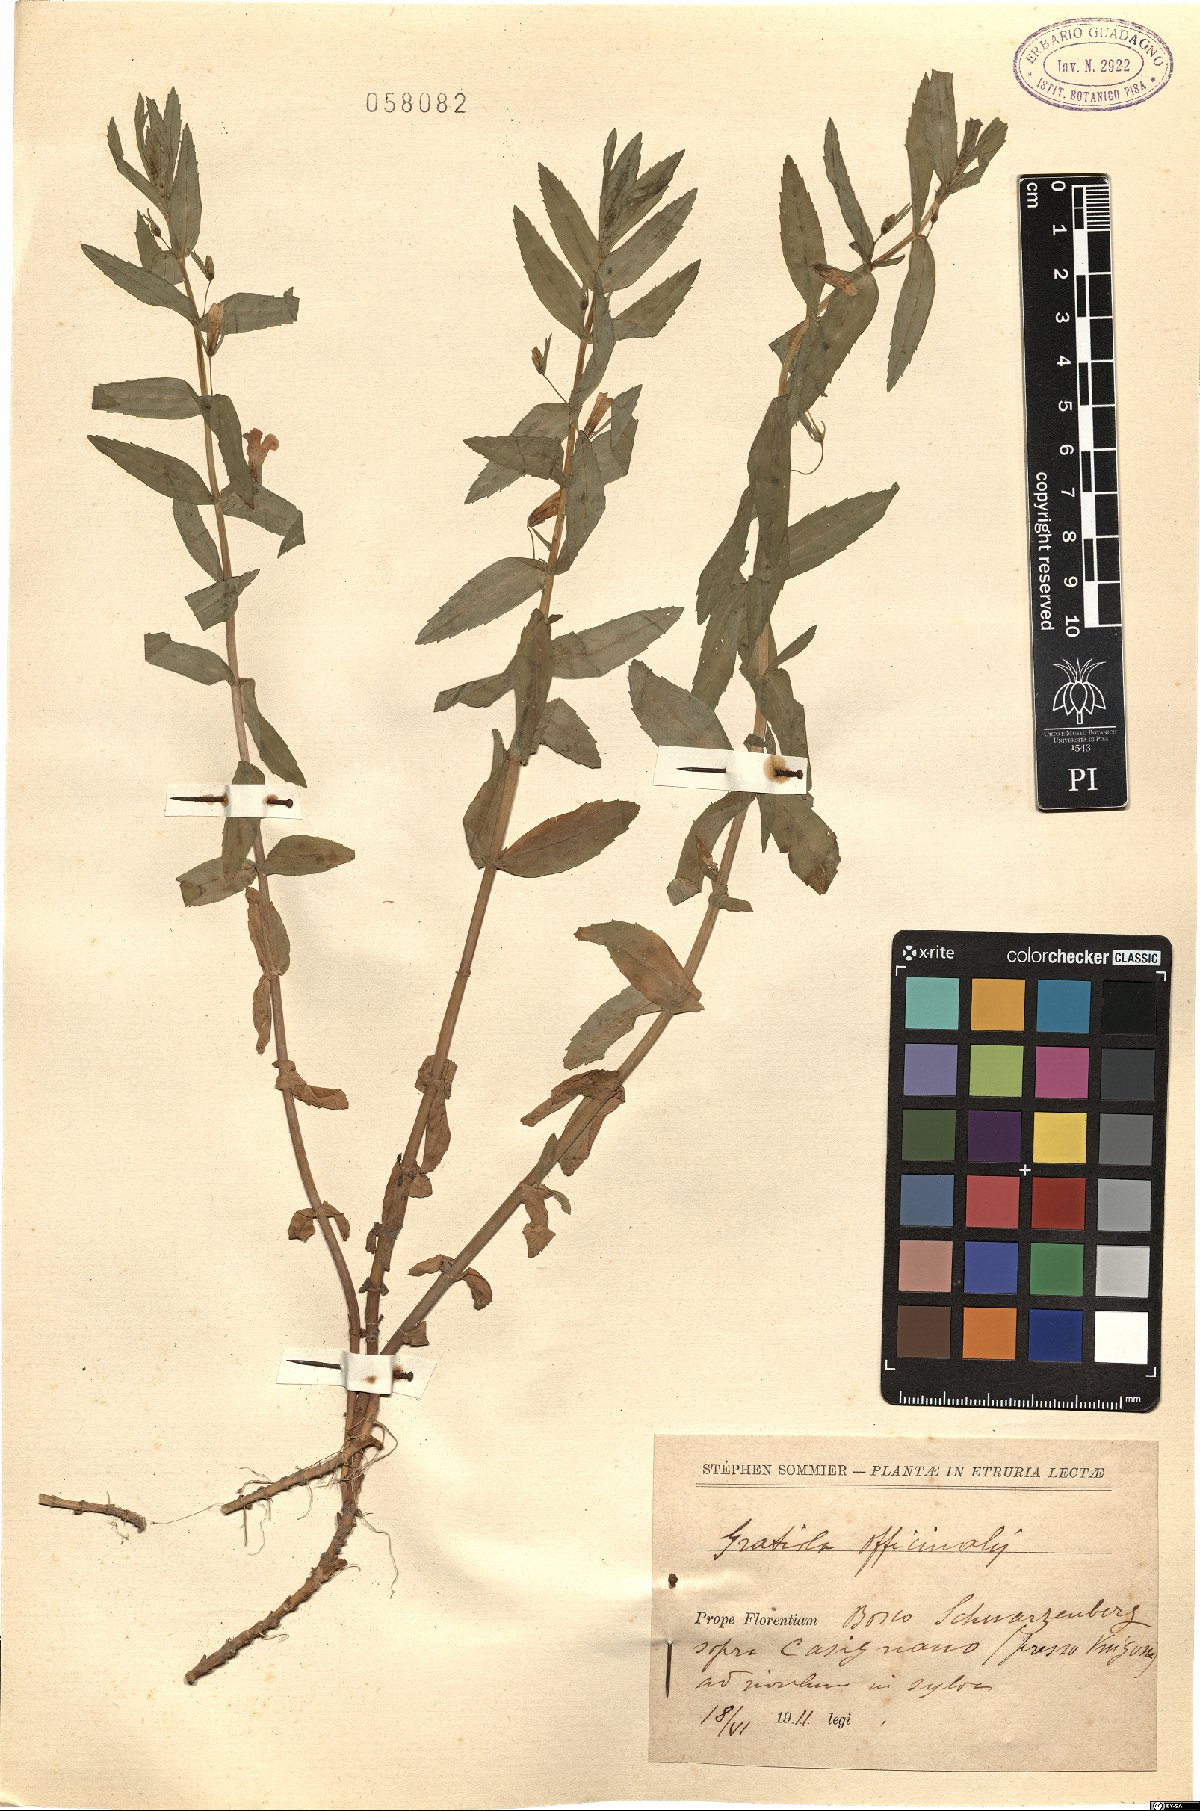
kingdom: Plantae
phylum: Tracheophyta
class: Magnoliopsida
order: Lamiales
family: Plantaginaceae
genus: Gratiola
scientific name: Gratiola officinalis
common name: Gratiola
